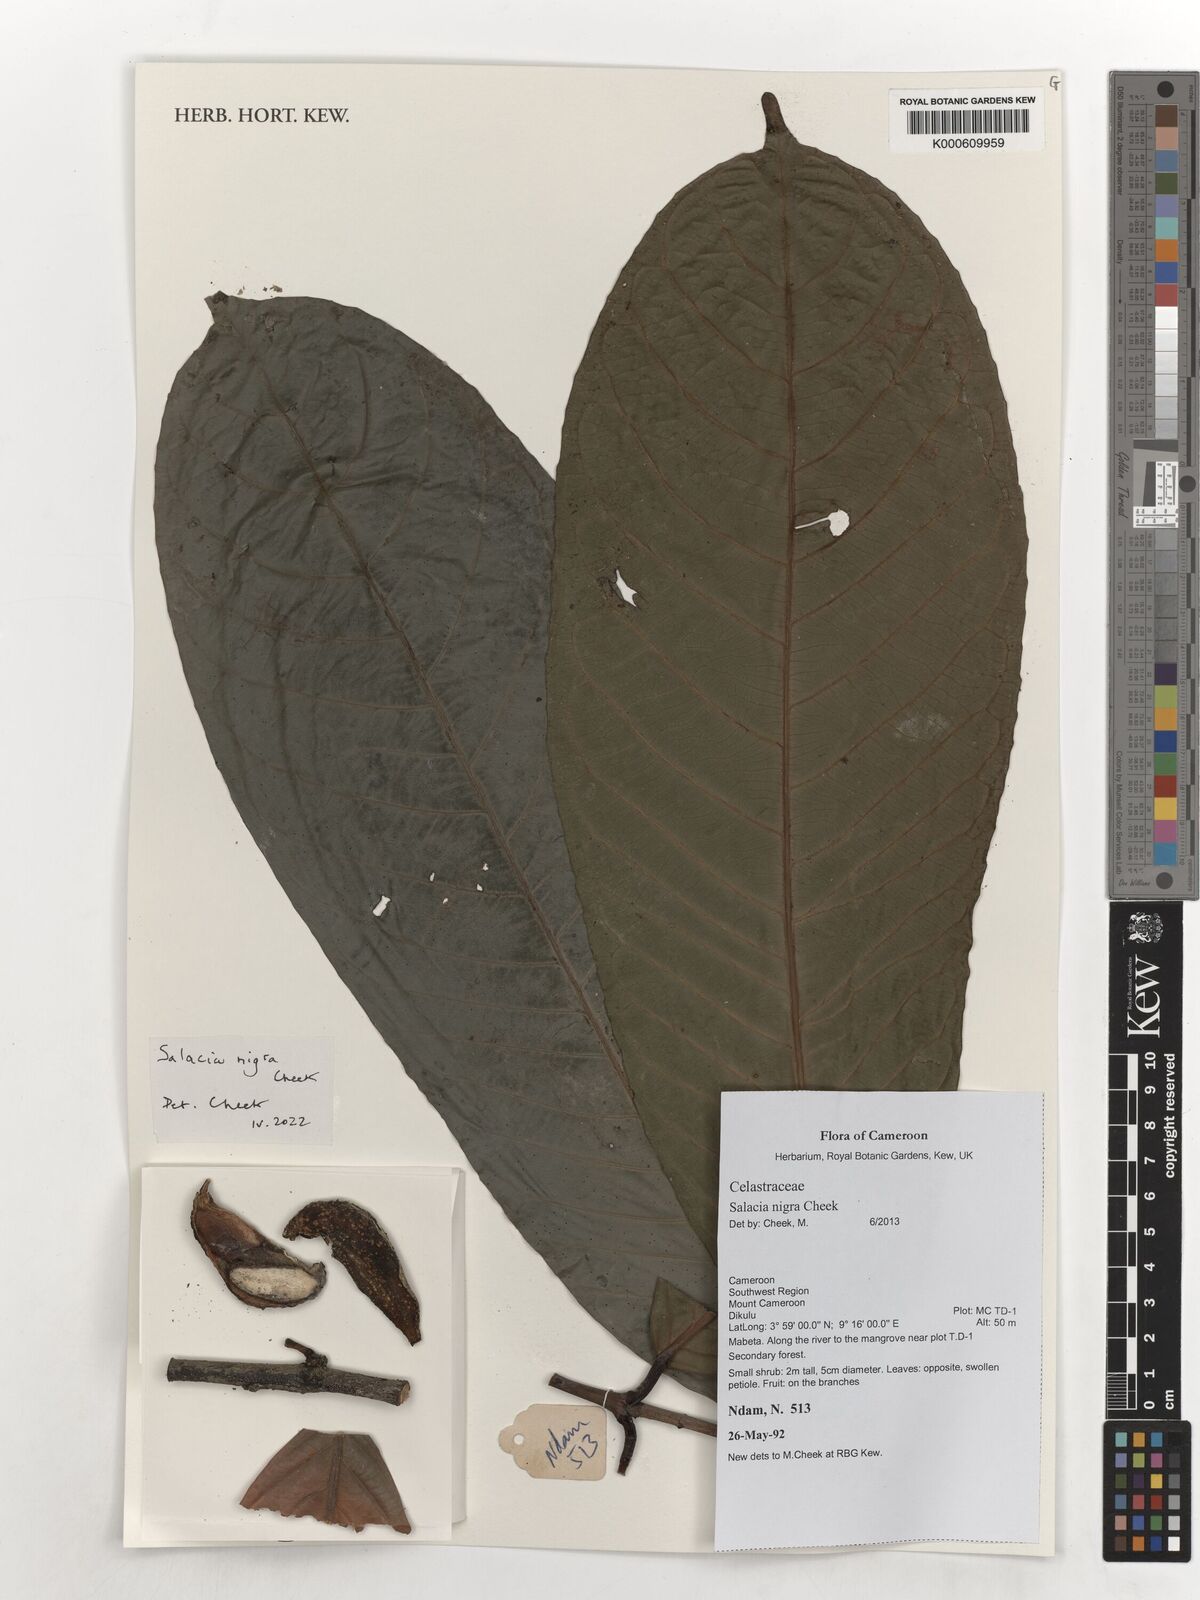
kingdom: Plantae
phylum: Tracheophyta
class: Magnoliopsida
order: Celastrales
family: Celastraceae
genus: Salacia
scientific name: Salacia nigra
